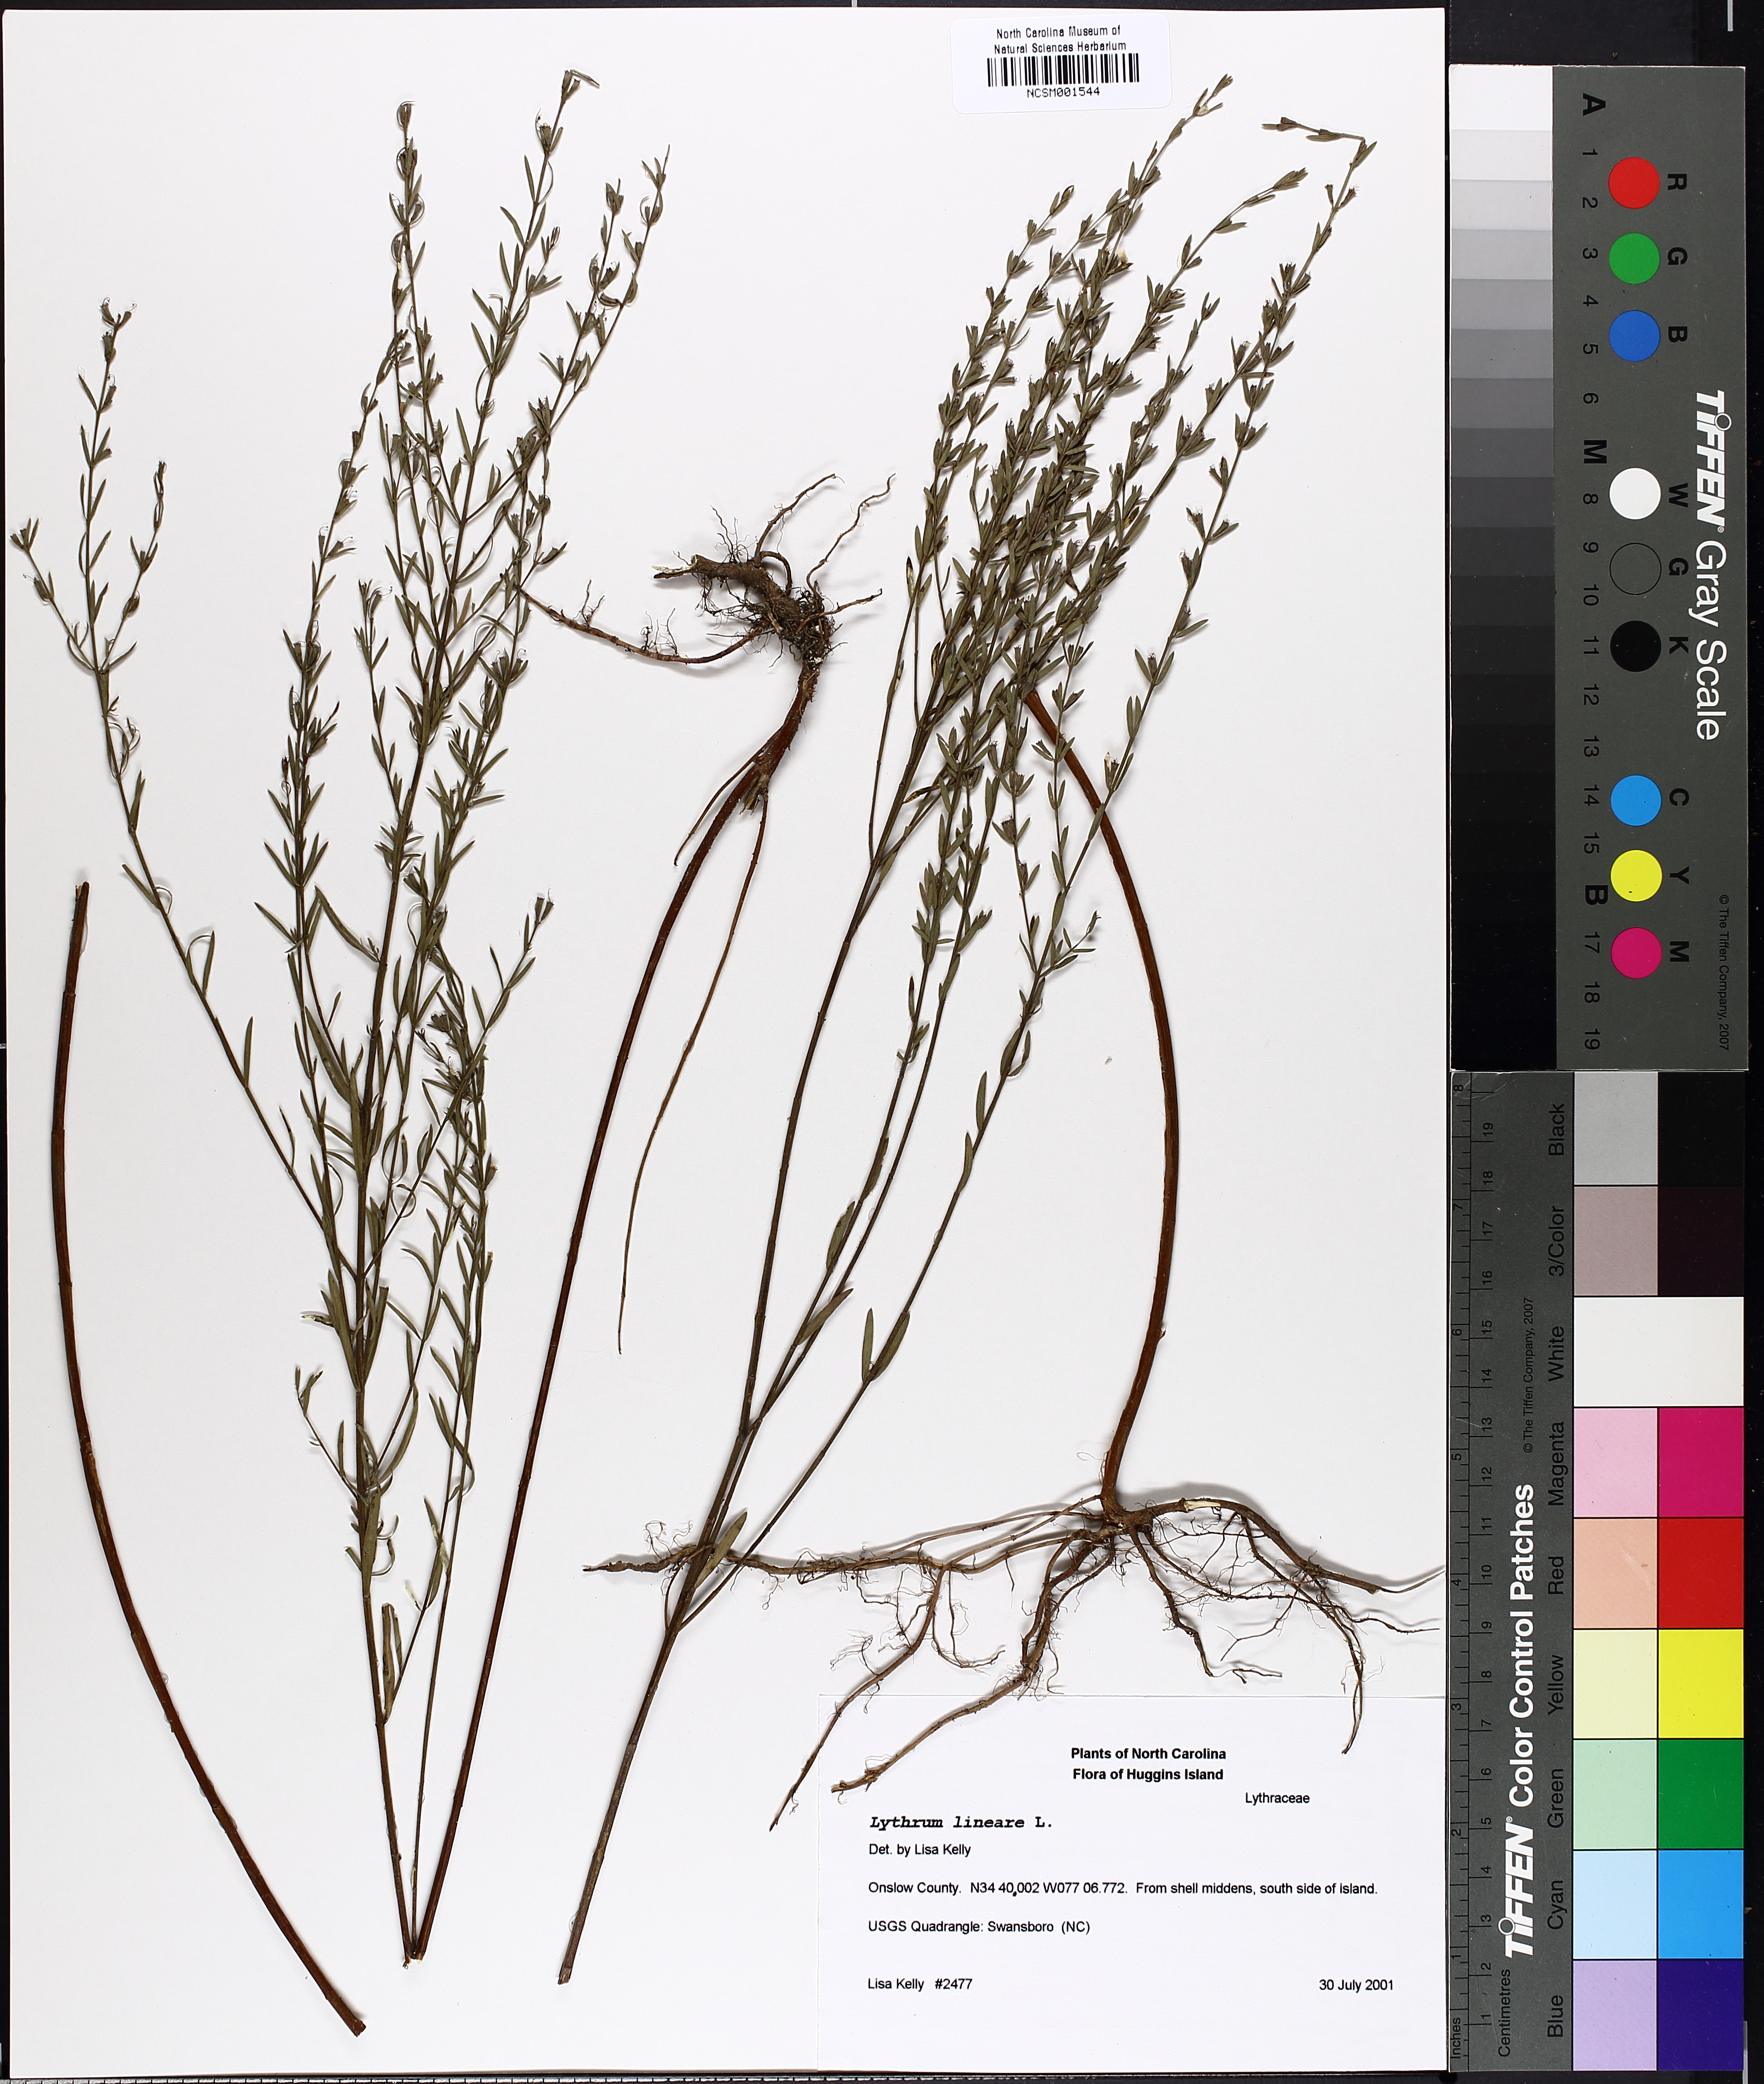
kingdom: Plantae
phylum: Tracheophyta
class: Magnoliopsida
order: Myrtales
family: Lythraceae
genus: Lythrum
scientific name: Lythrum lineare
